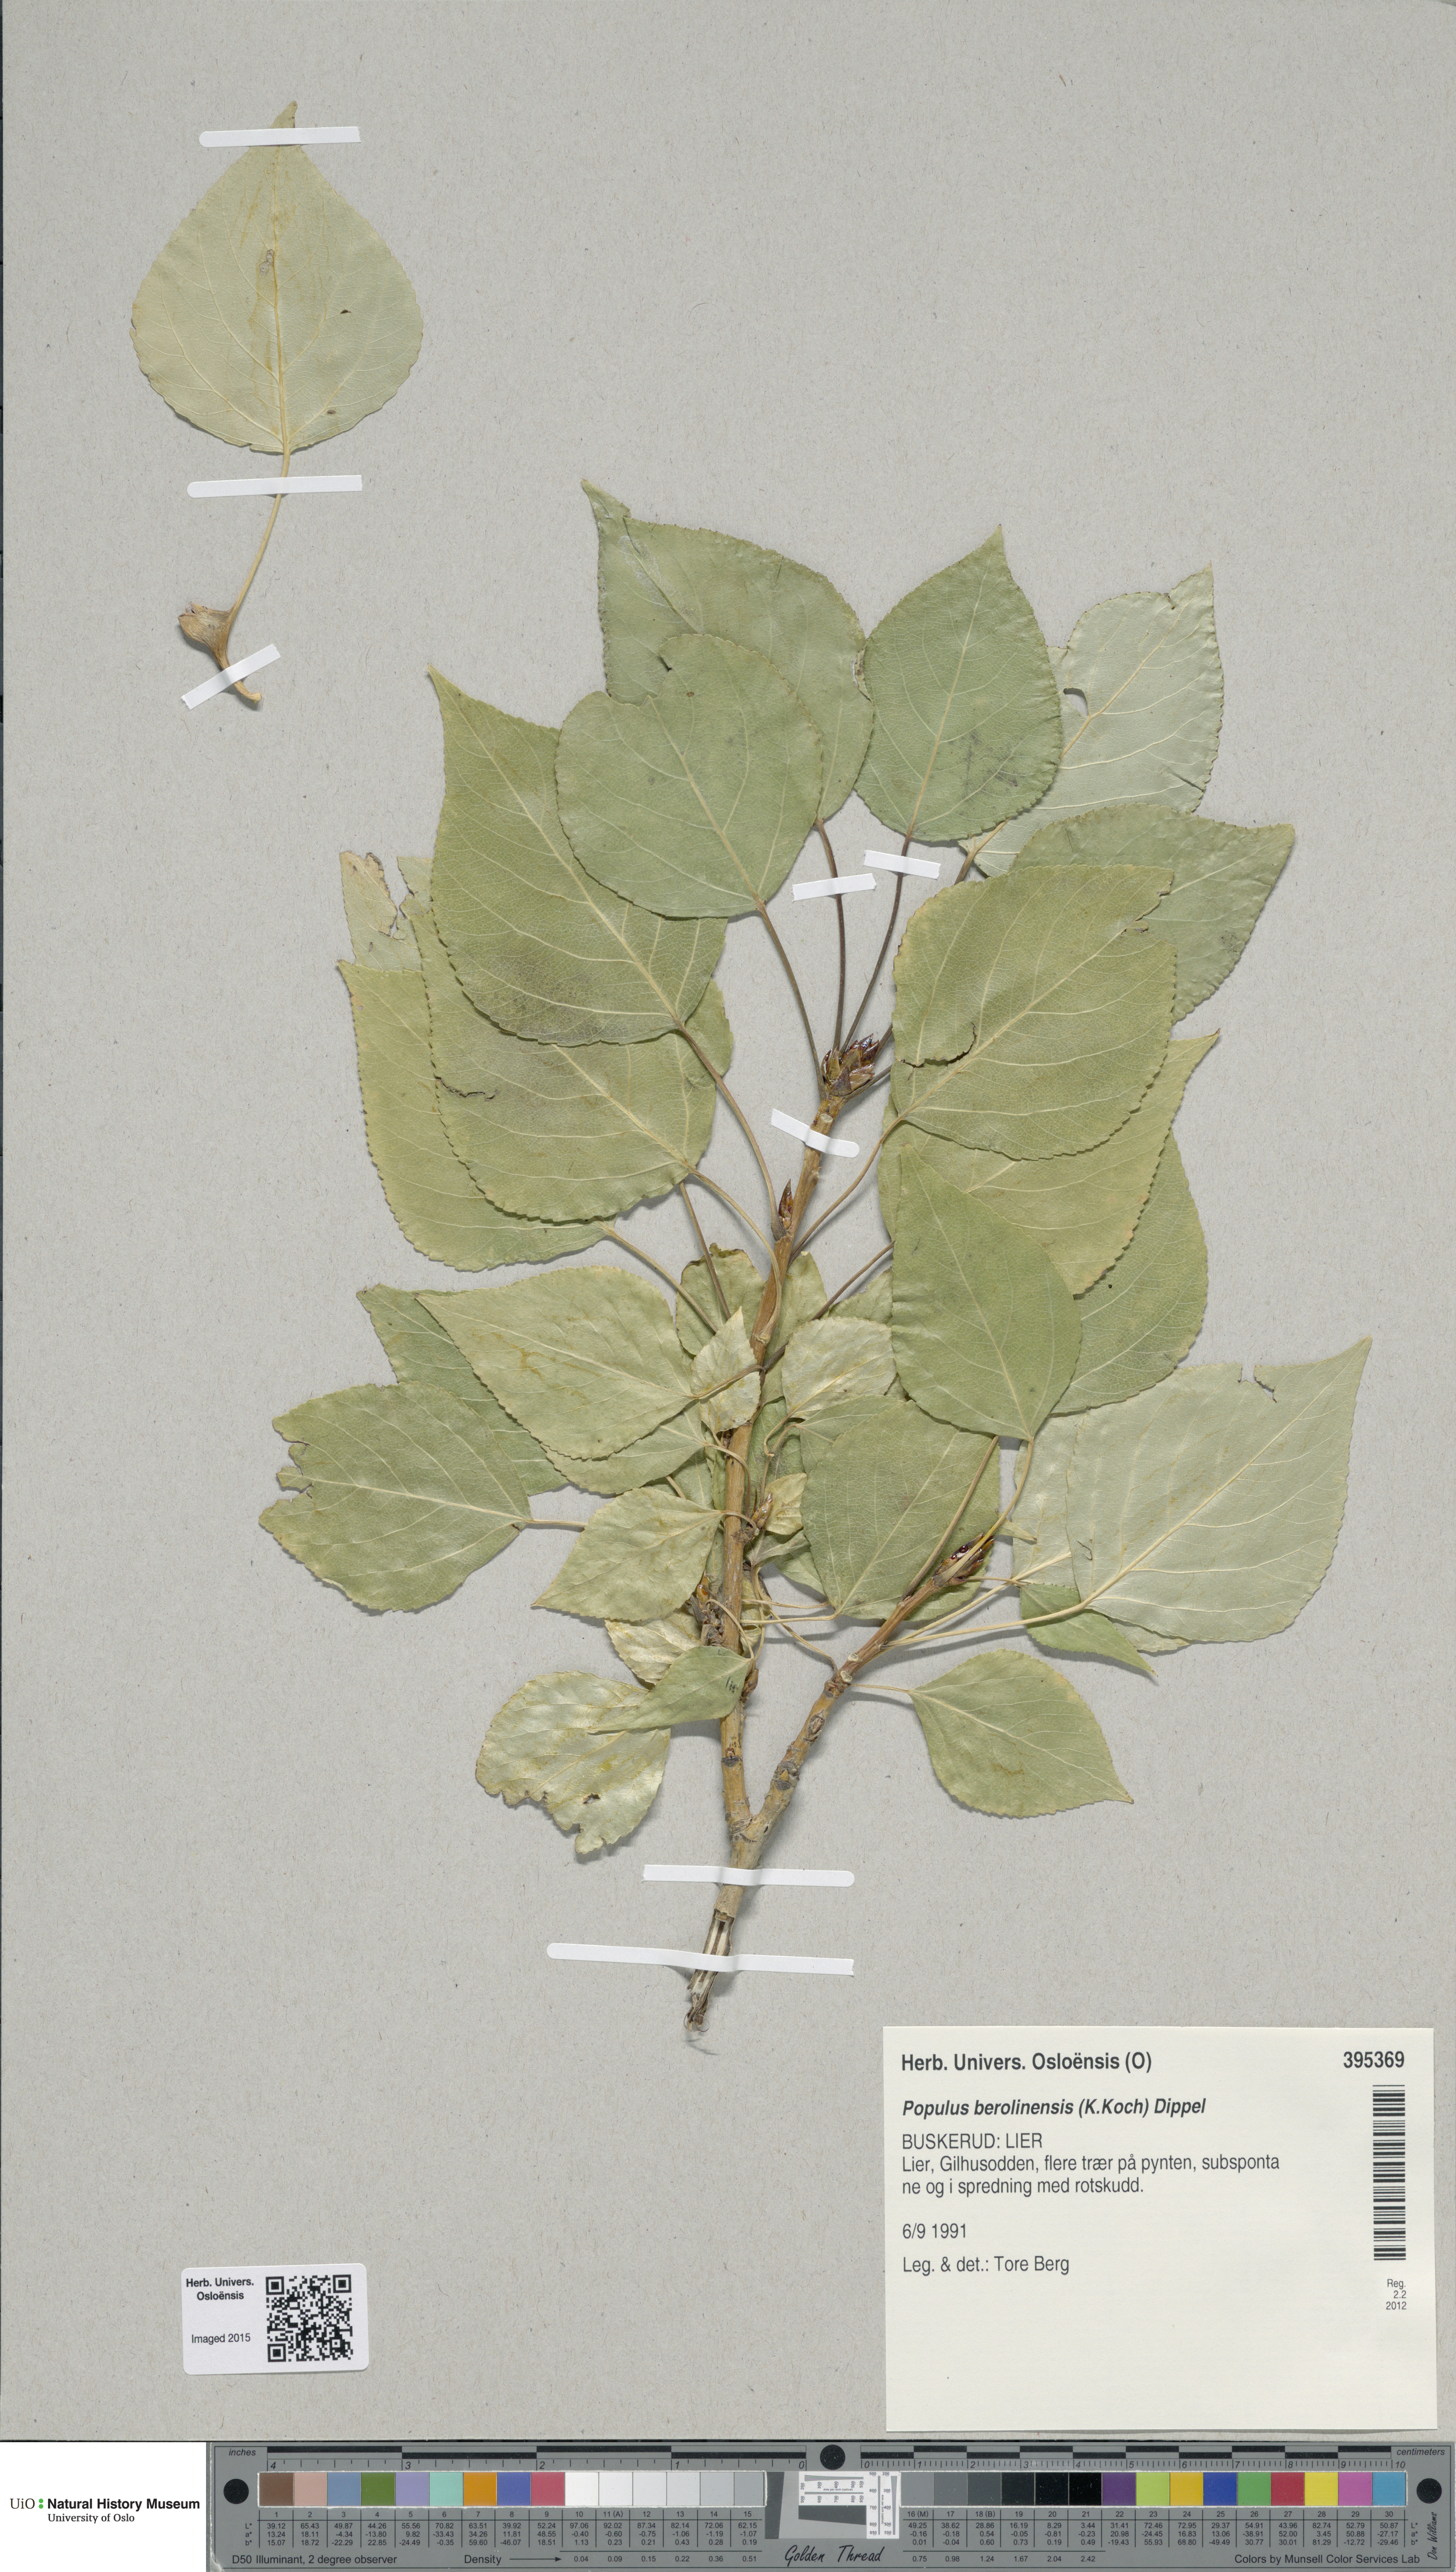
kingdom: Plantae
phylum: Tracheophyta
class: Magnoliopsida
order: Malpighiales
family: Salicaceae
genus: Populus
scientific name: Populus berolinensis
